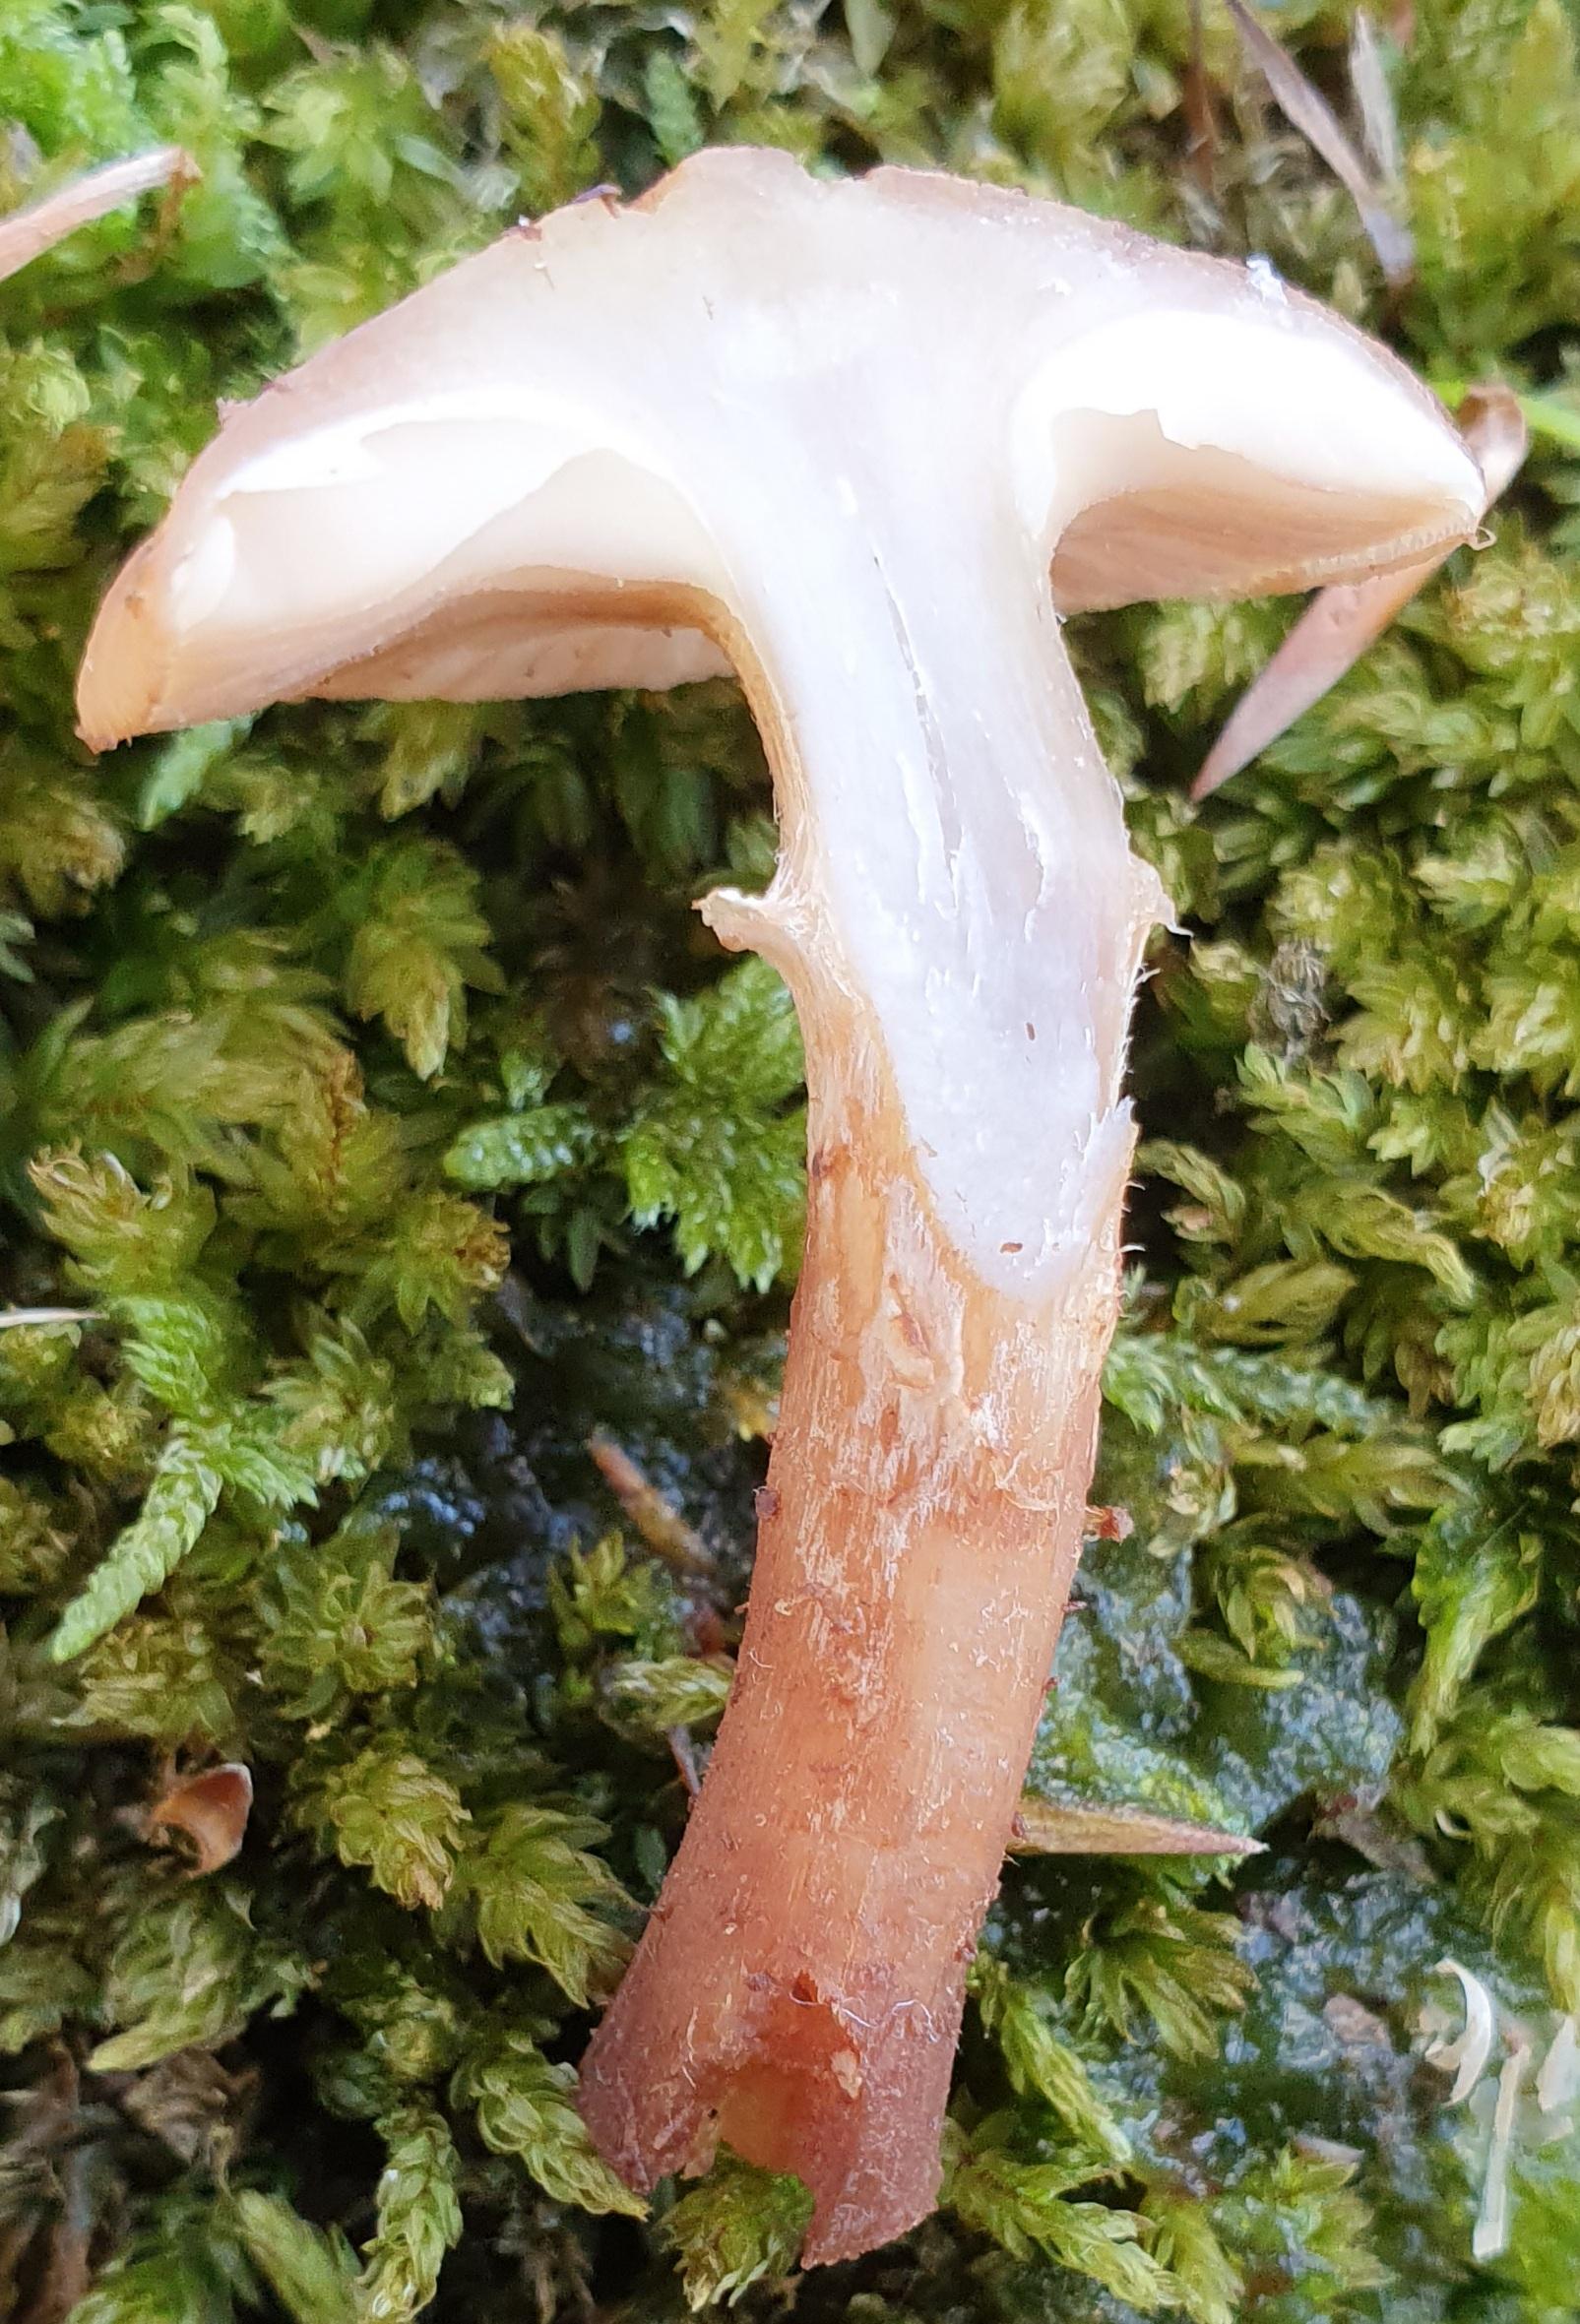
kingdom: Fungi
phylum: Basidiomycota
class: Agaricomycetes
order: Agaricales
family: Physalacriaceae
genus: Armillaria
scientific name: Armillaria ostoyae
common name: mørk honningsvamp
